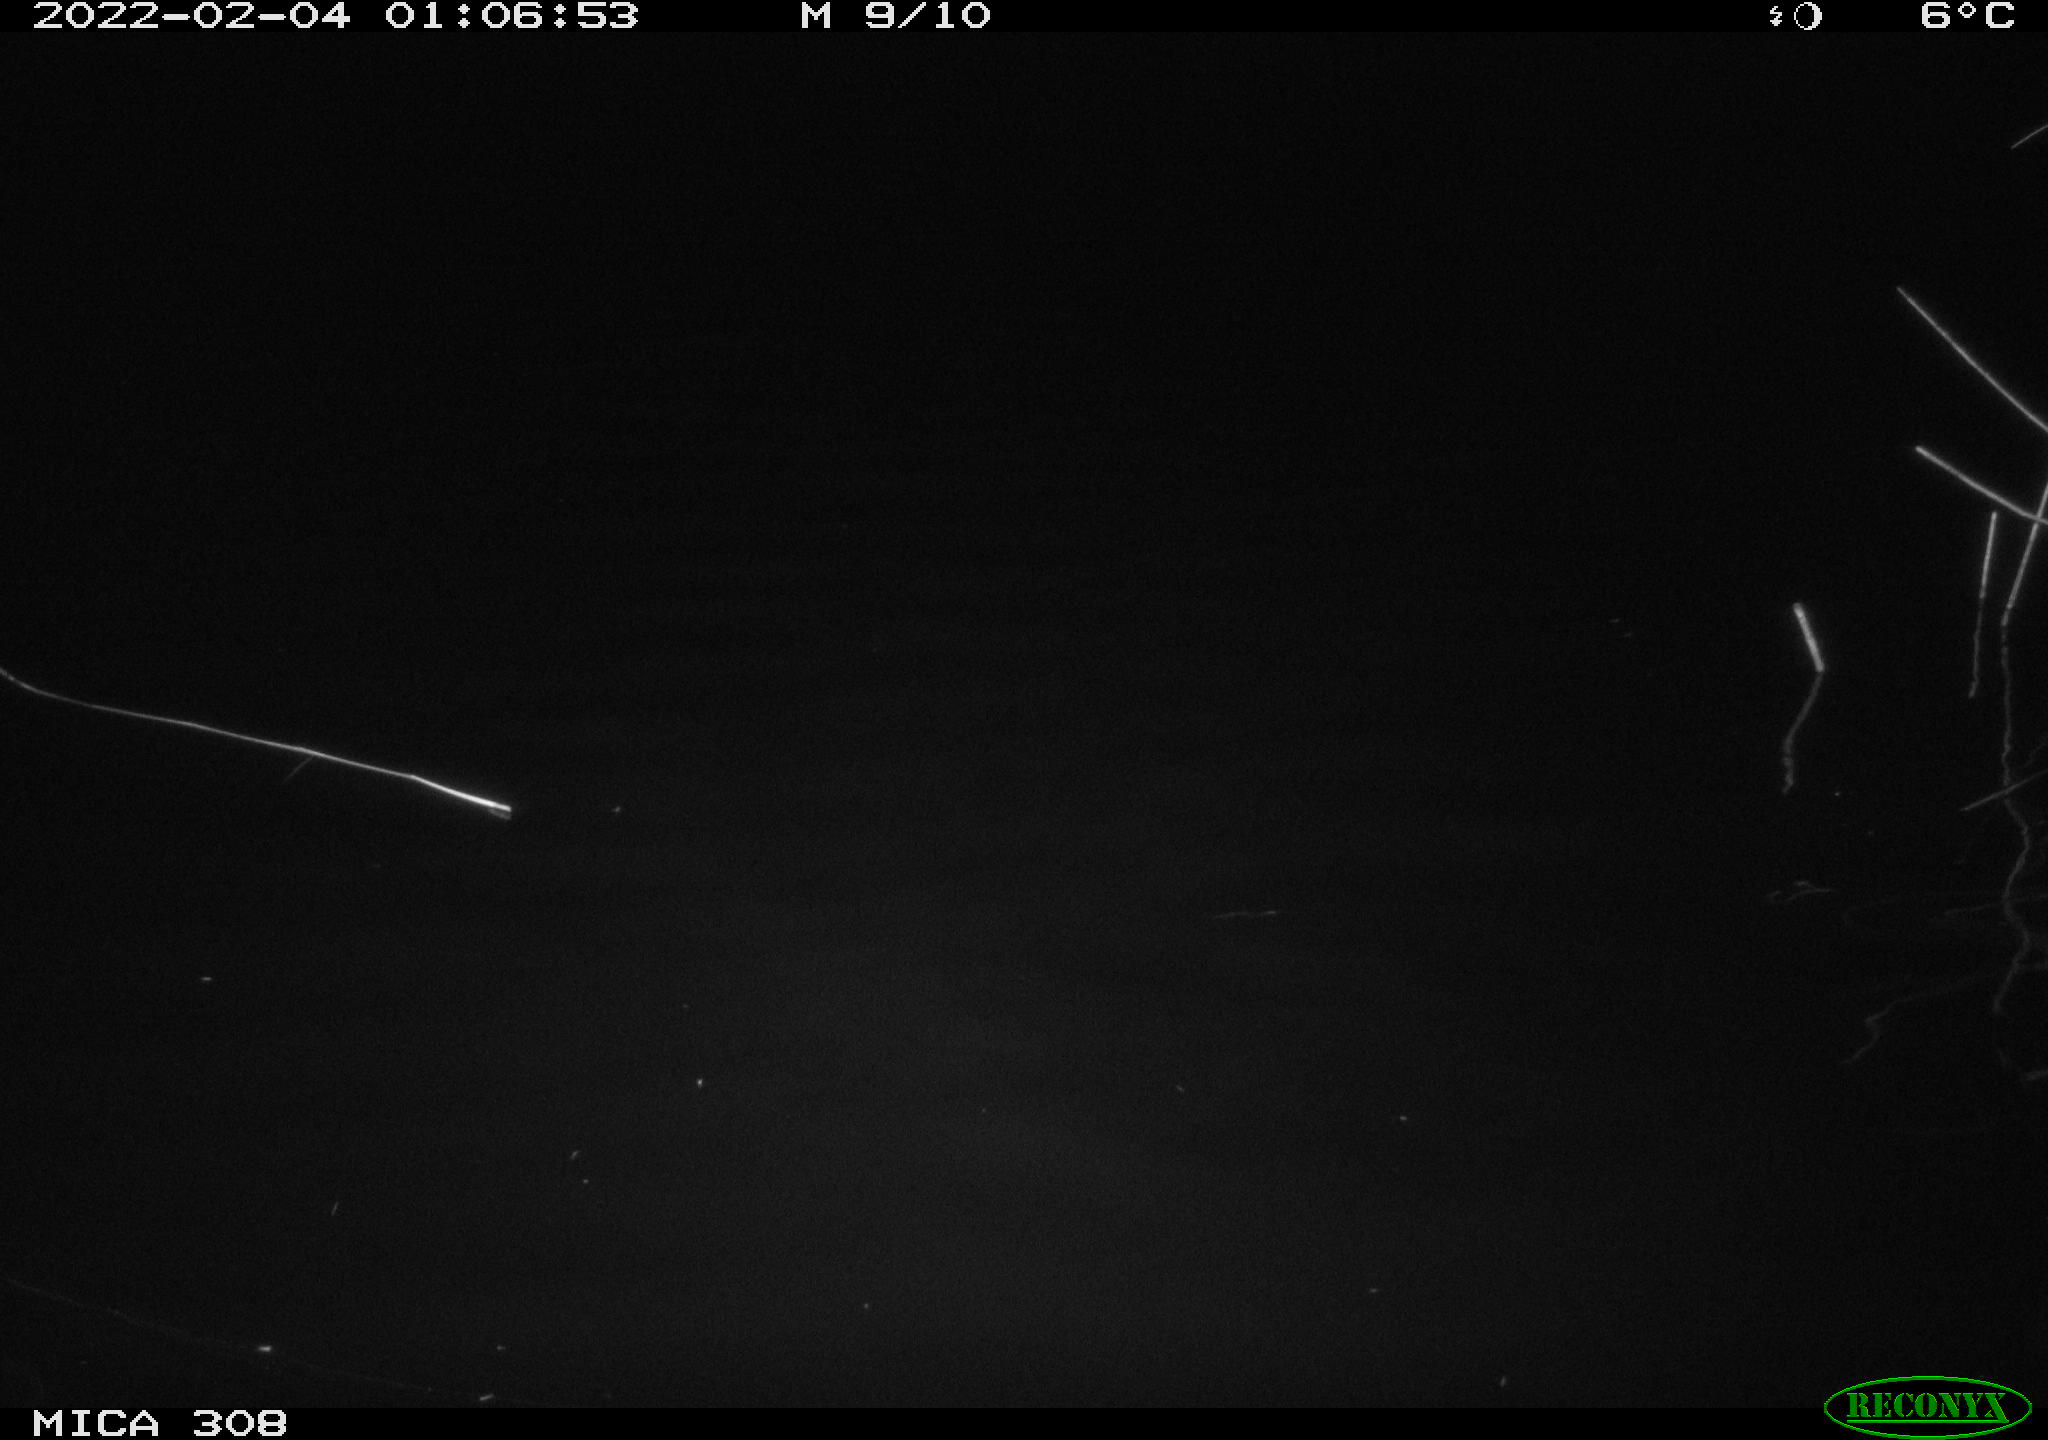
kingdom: Animalia
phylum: Chordata
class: Aves
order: Anseriformes
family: Anatidae
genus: Anas
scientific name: Anas platyrhynchos
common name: Mallard
